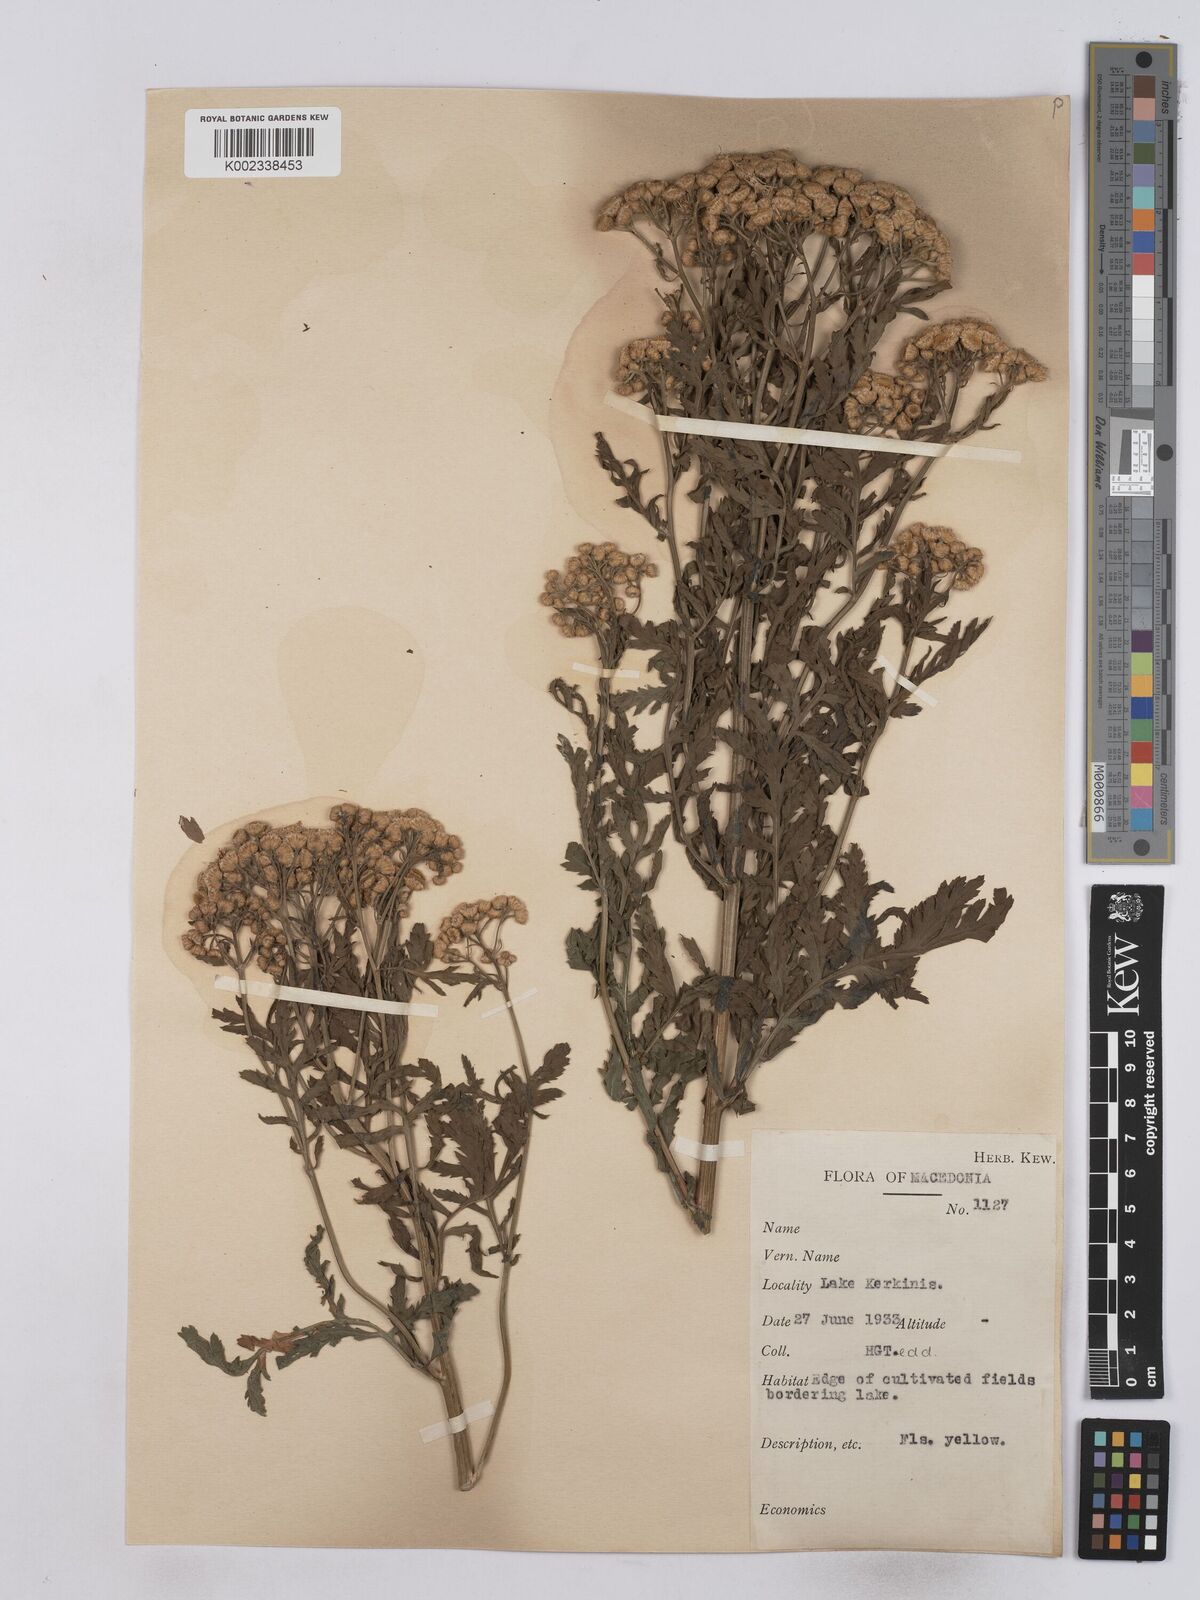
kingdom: Plantae
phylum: Tracheophyta
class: Magnoliopsida
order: Asterales
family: Asteraceae
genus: Tanacetum
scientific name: Tanacetum vulgare
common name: Common tansy
